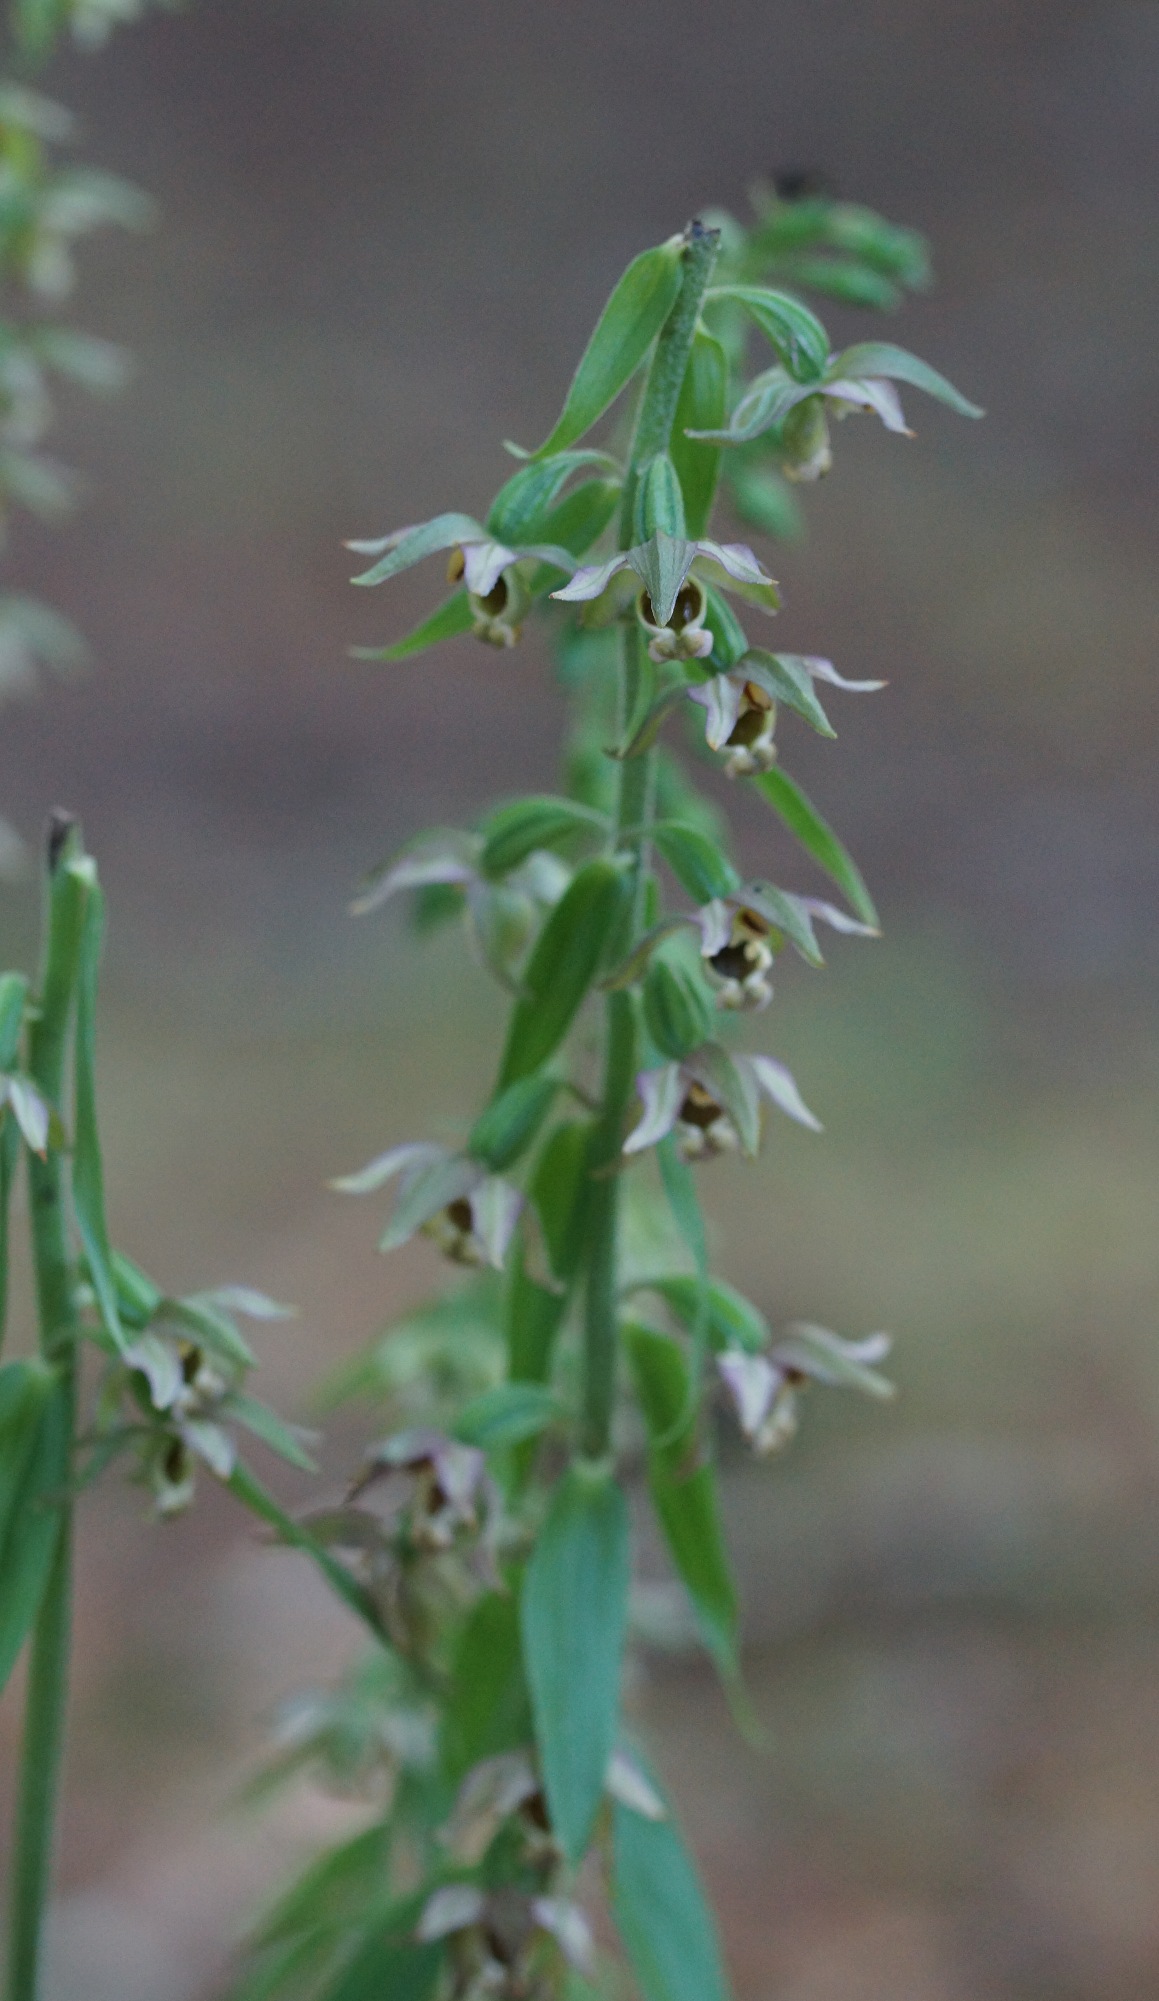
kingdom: Plantae
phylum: Tracheophyta
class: Liliopsida
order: Asparagales
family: Orchidaceae
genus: Epipactis
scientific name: Epipactis helleborine
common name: Skov-hullæbe
